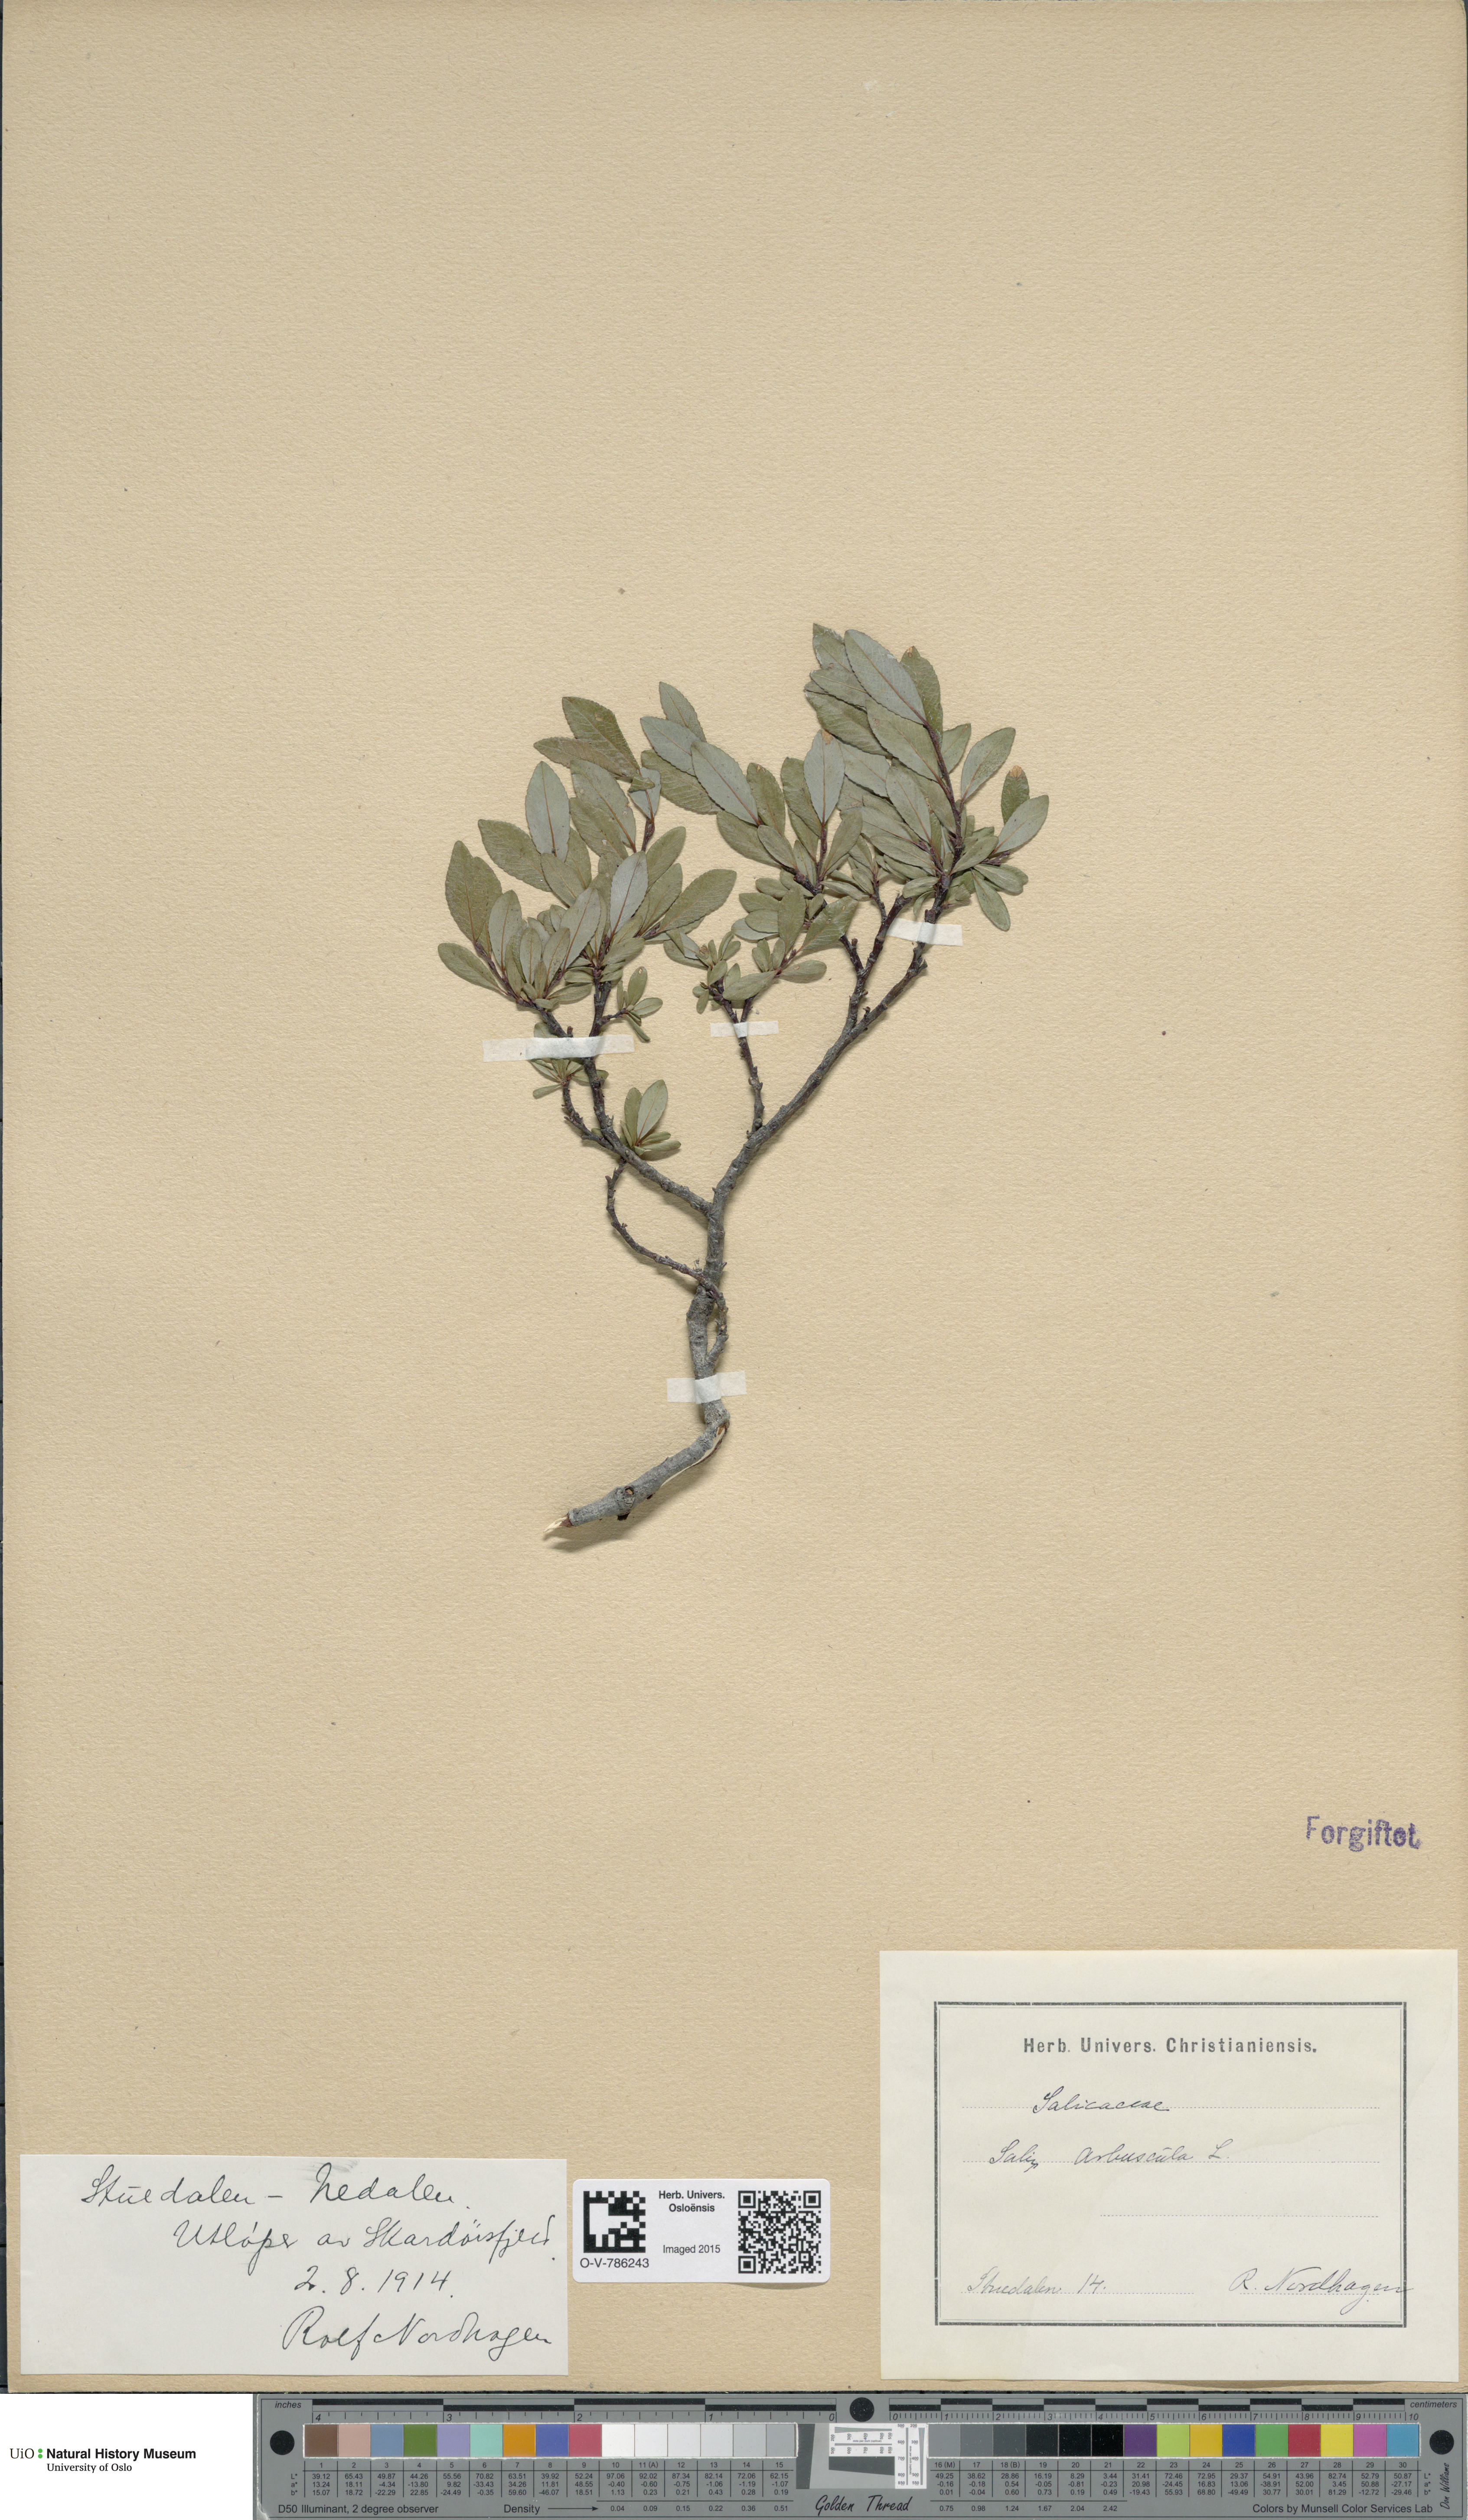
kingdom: Plantae
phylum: Tracheophyta
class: Magnoliopsida
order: Malpighiales
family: Salicaceae
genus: Salix
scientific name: Salix arbuscula
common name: Mountain willow
